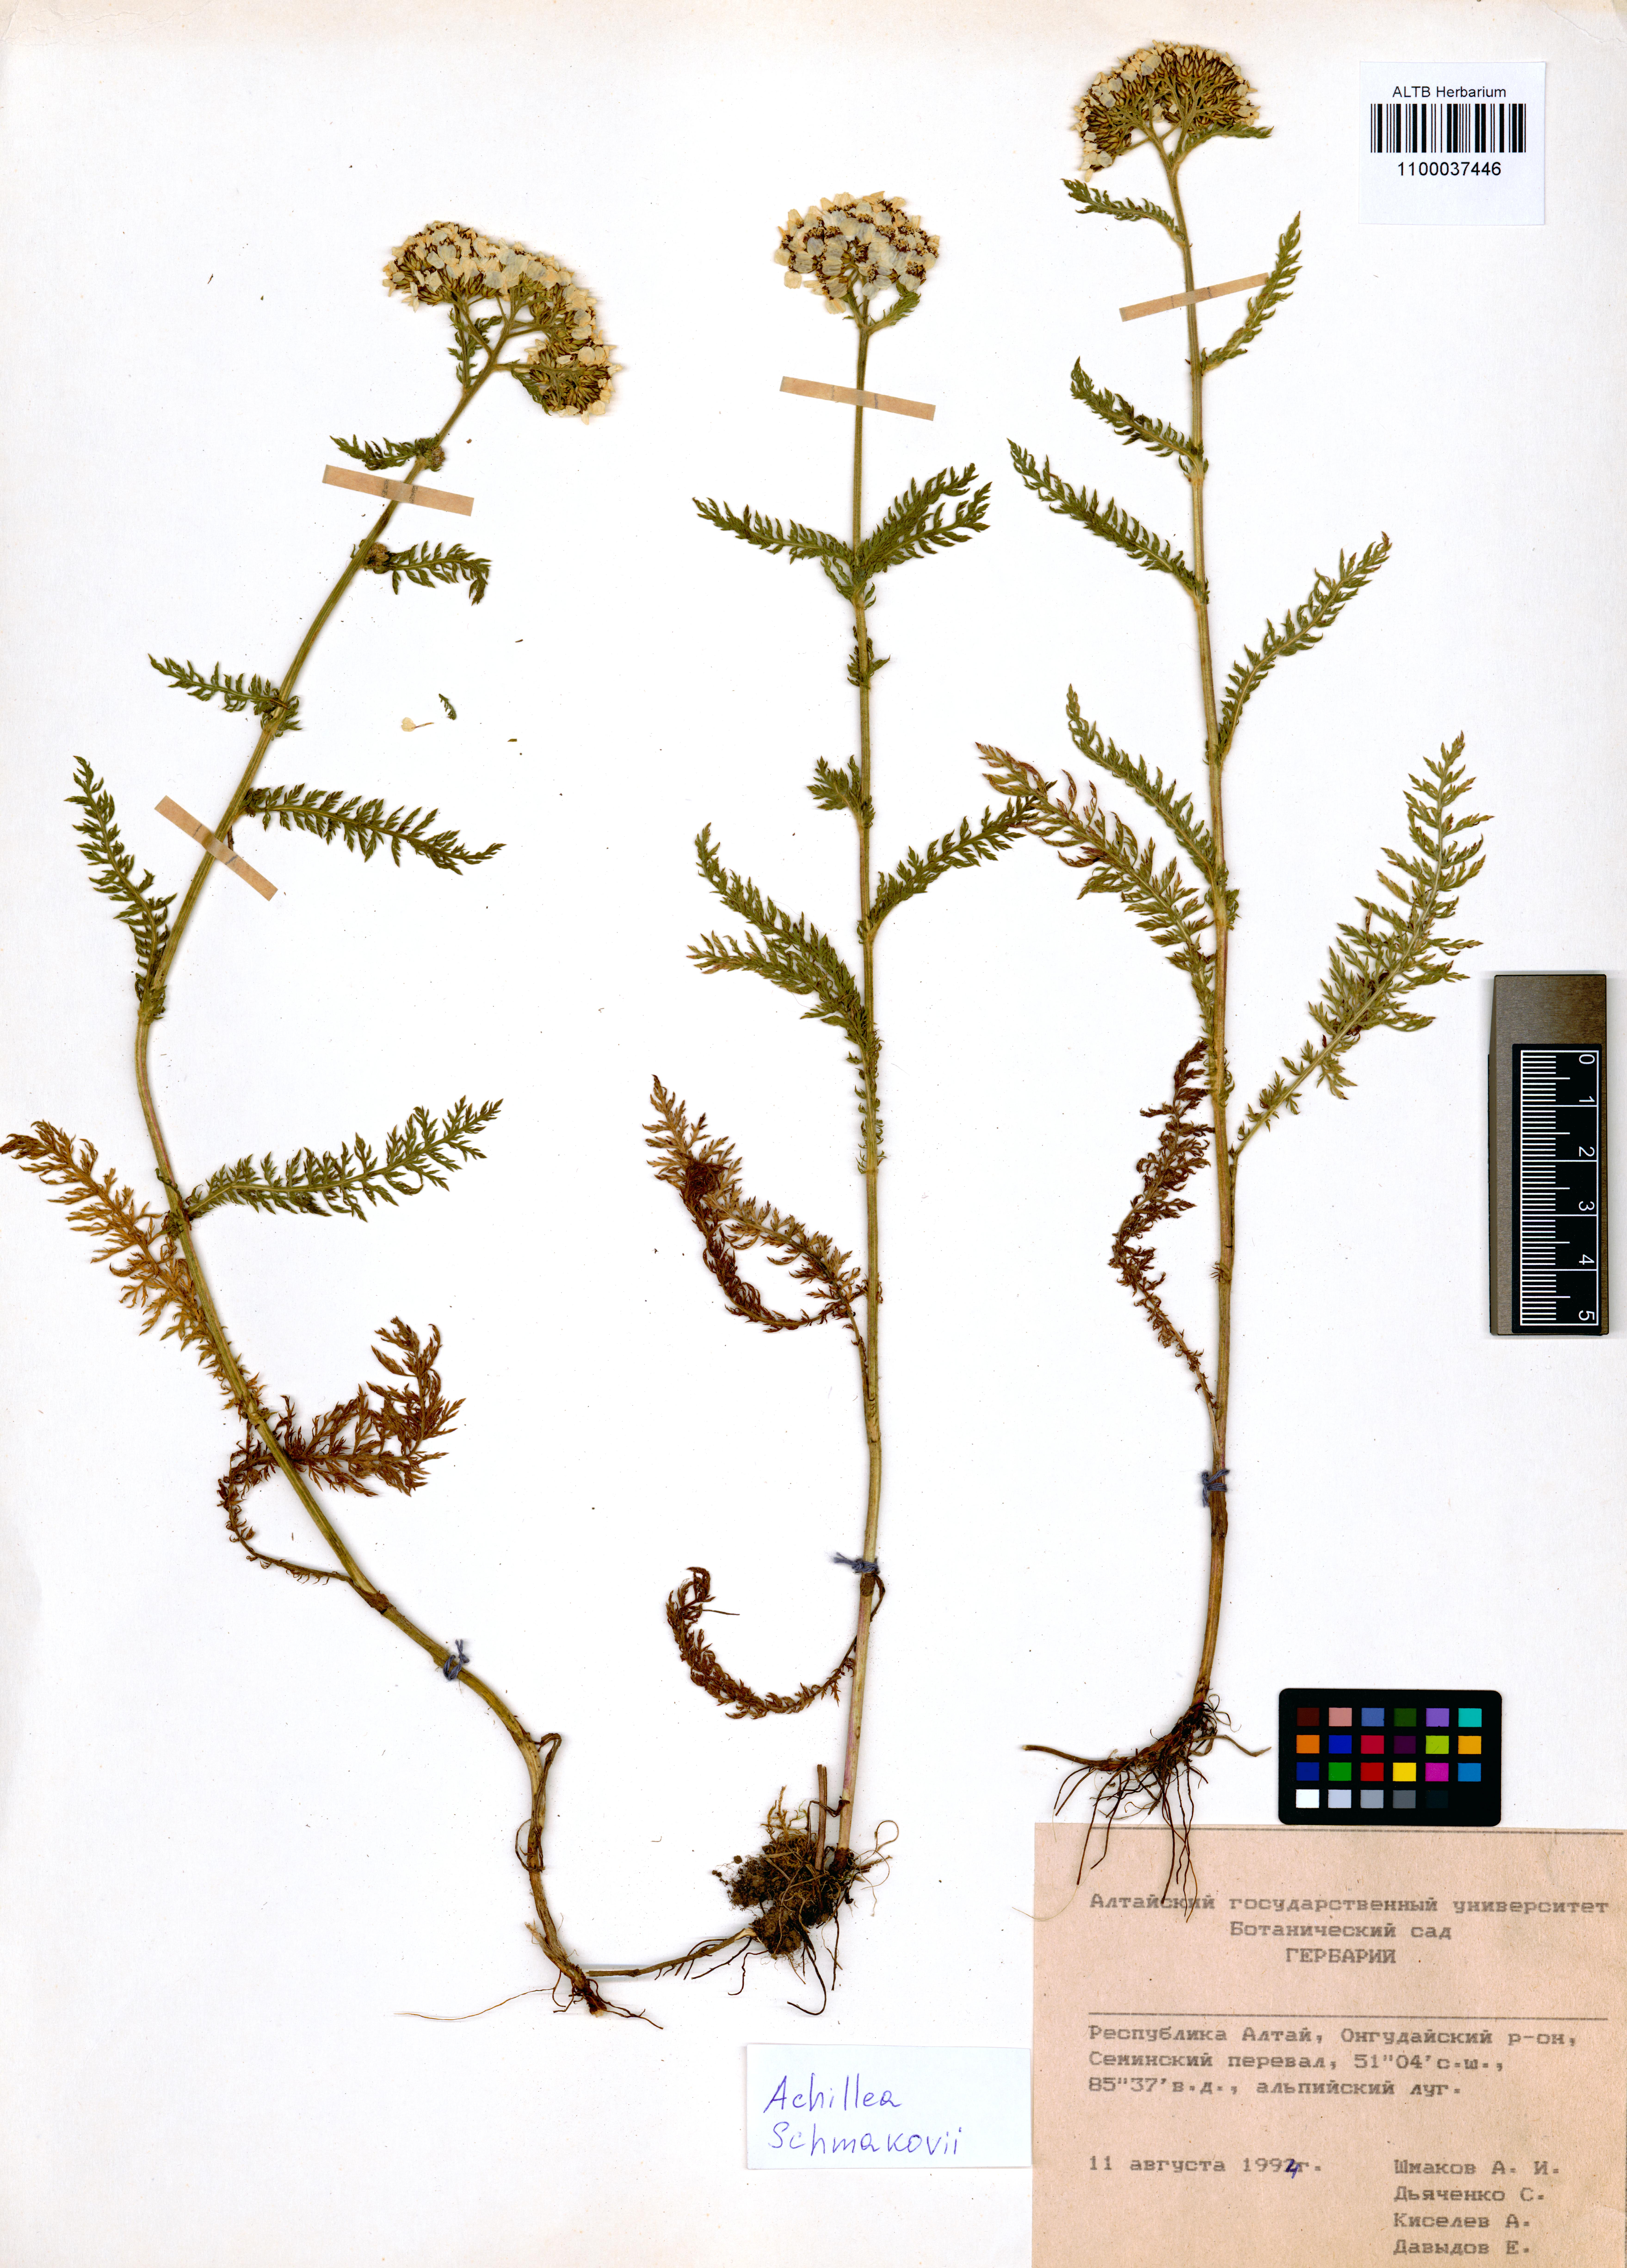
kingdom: Plantae
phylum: Tracheophyta
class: Magnoliopsida
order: Asterales
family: Asteraceae
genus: Achillea
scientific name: Achillea schmakovii
